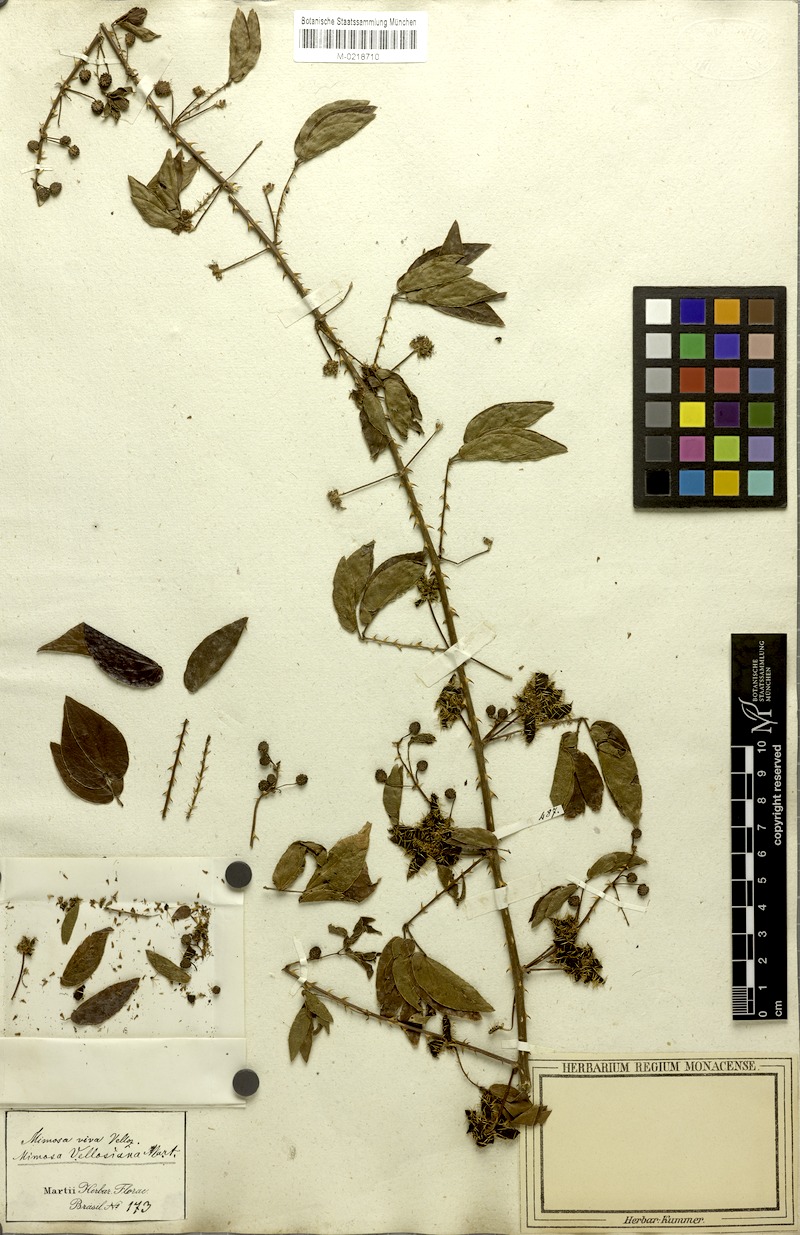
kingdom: Plantae
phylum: Tracheophyta
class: Magnoliopsida
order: Fabales
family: Fabaceae
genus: Mimosa
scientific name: Mimosa velloziana
